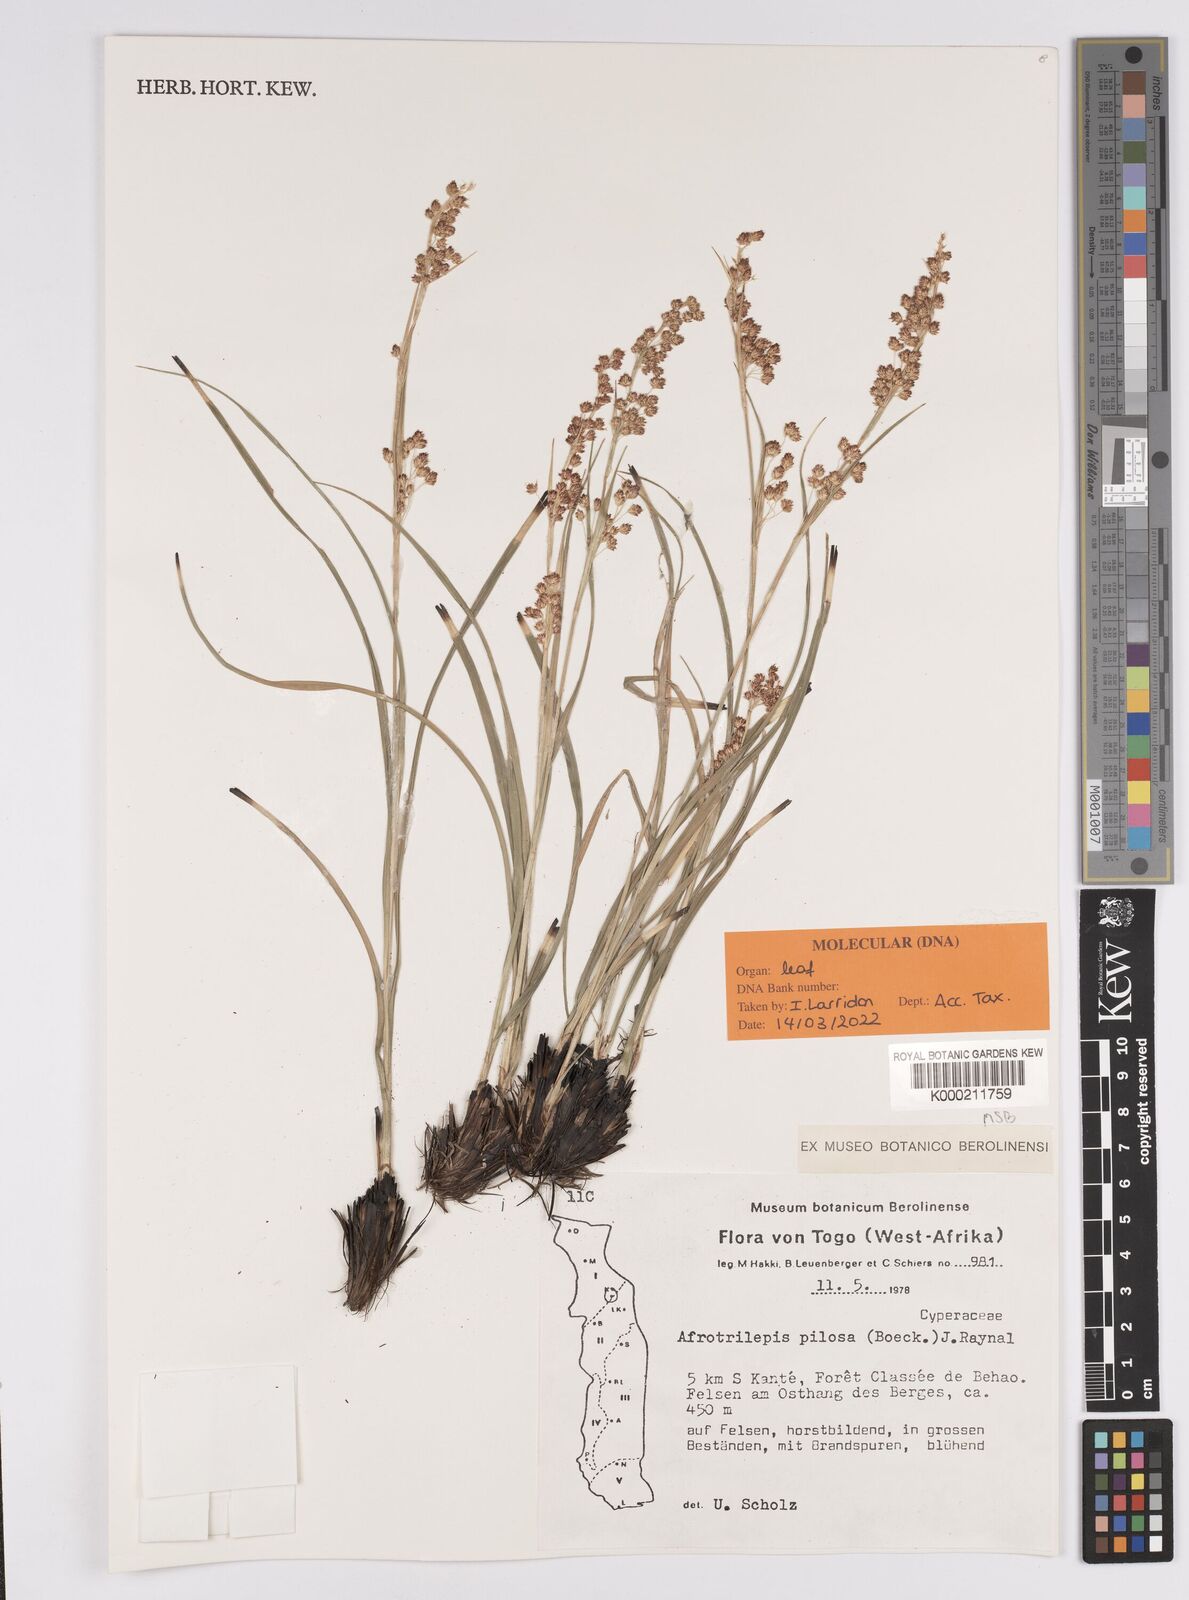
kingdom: Plantae
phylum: Tracheophyta
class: Liliopsida
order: Poales
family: Cyperaceae
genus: Afrotrilepis
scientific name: Afrotrilepis pilosa
